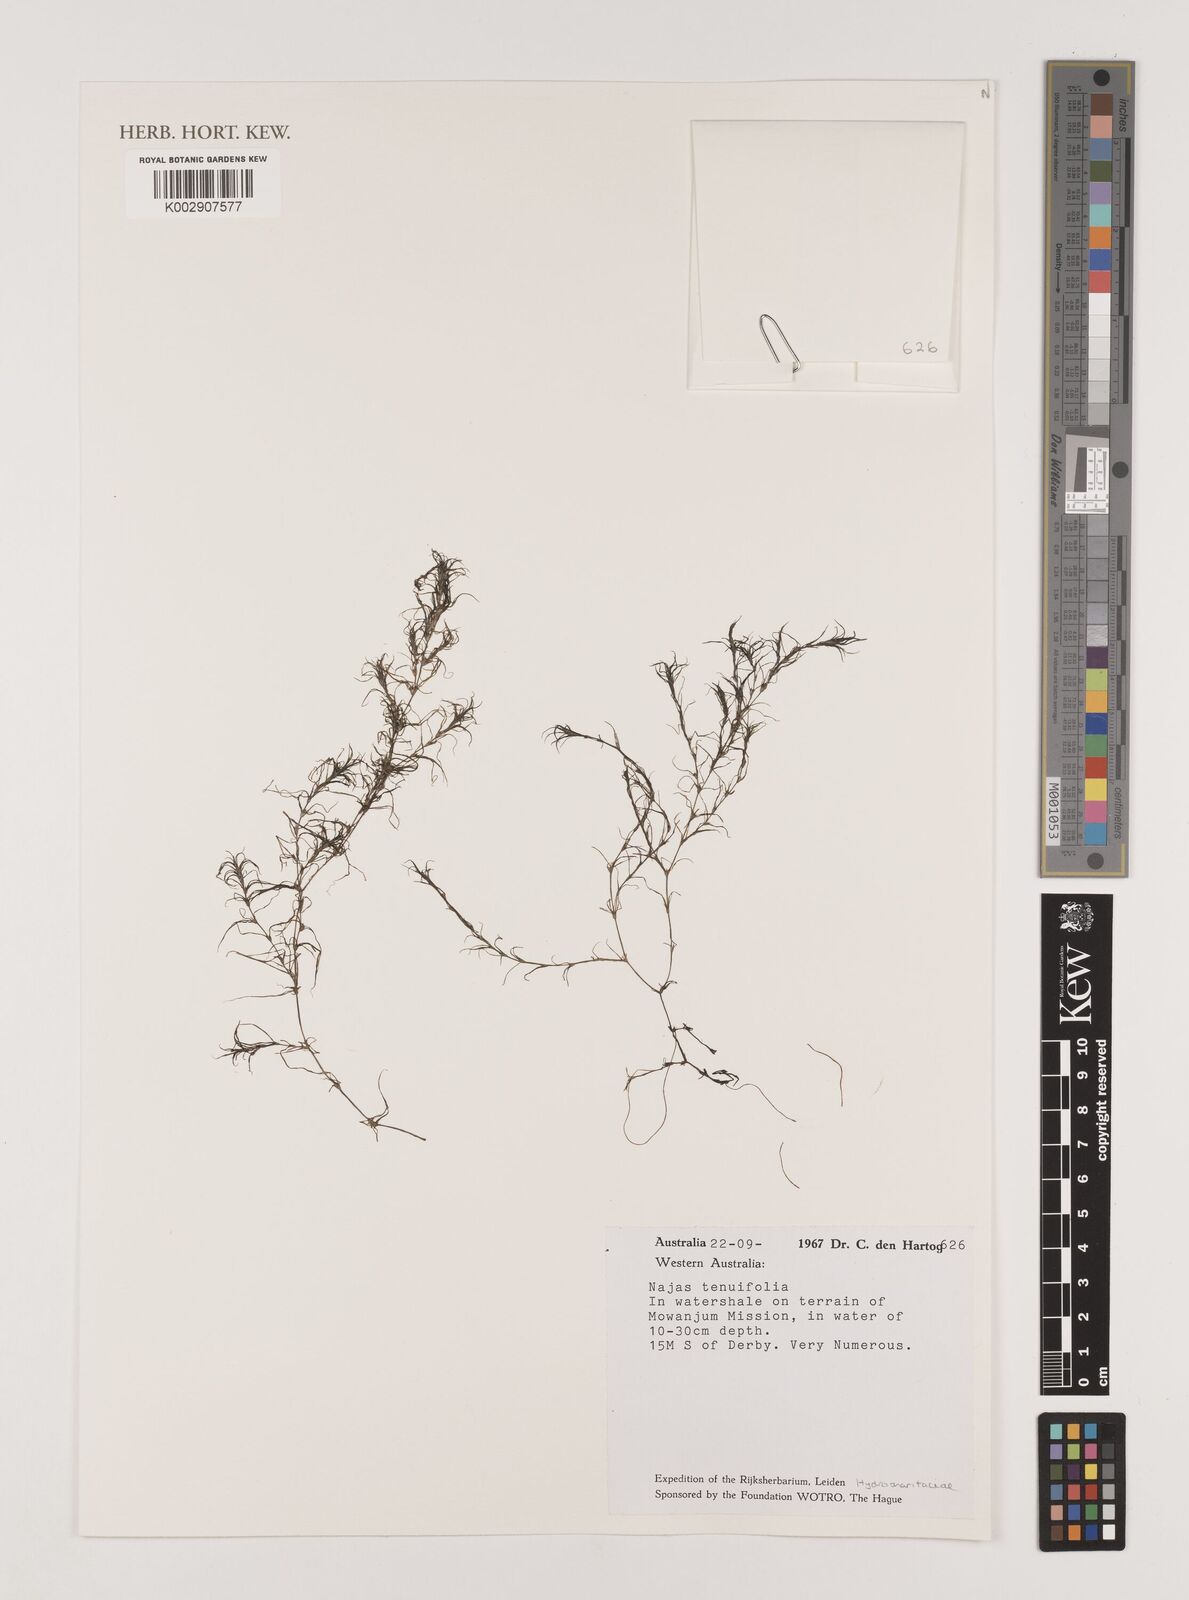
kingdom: Plantae
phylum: Tracheophyta
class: Liliopsida
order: Alismatales
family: Hydrocharitaceae
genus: Najas
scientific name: Najas tenuifolia
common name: Thin-leaved naiad
